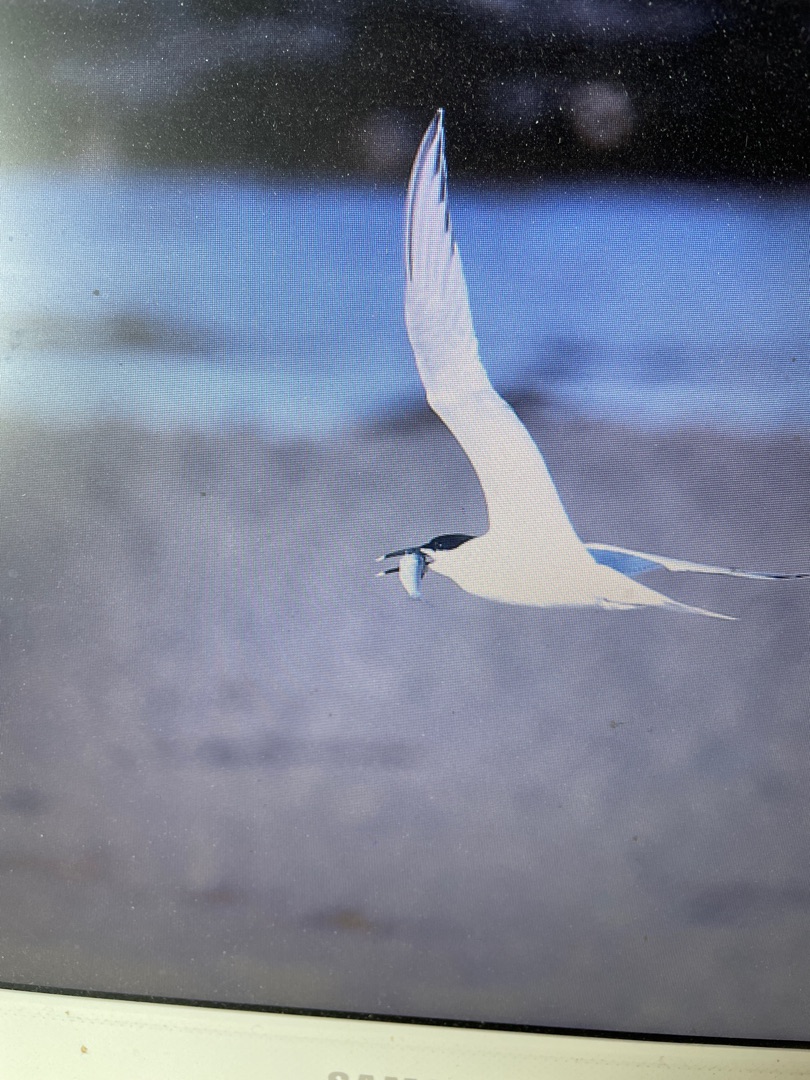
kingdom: Animalia
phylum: Chordata
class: Aves
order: Charadriiformes
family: Laridae
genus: Thalasseus
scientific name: Thalasseus sandvicensis
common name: Splitterne
